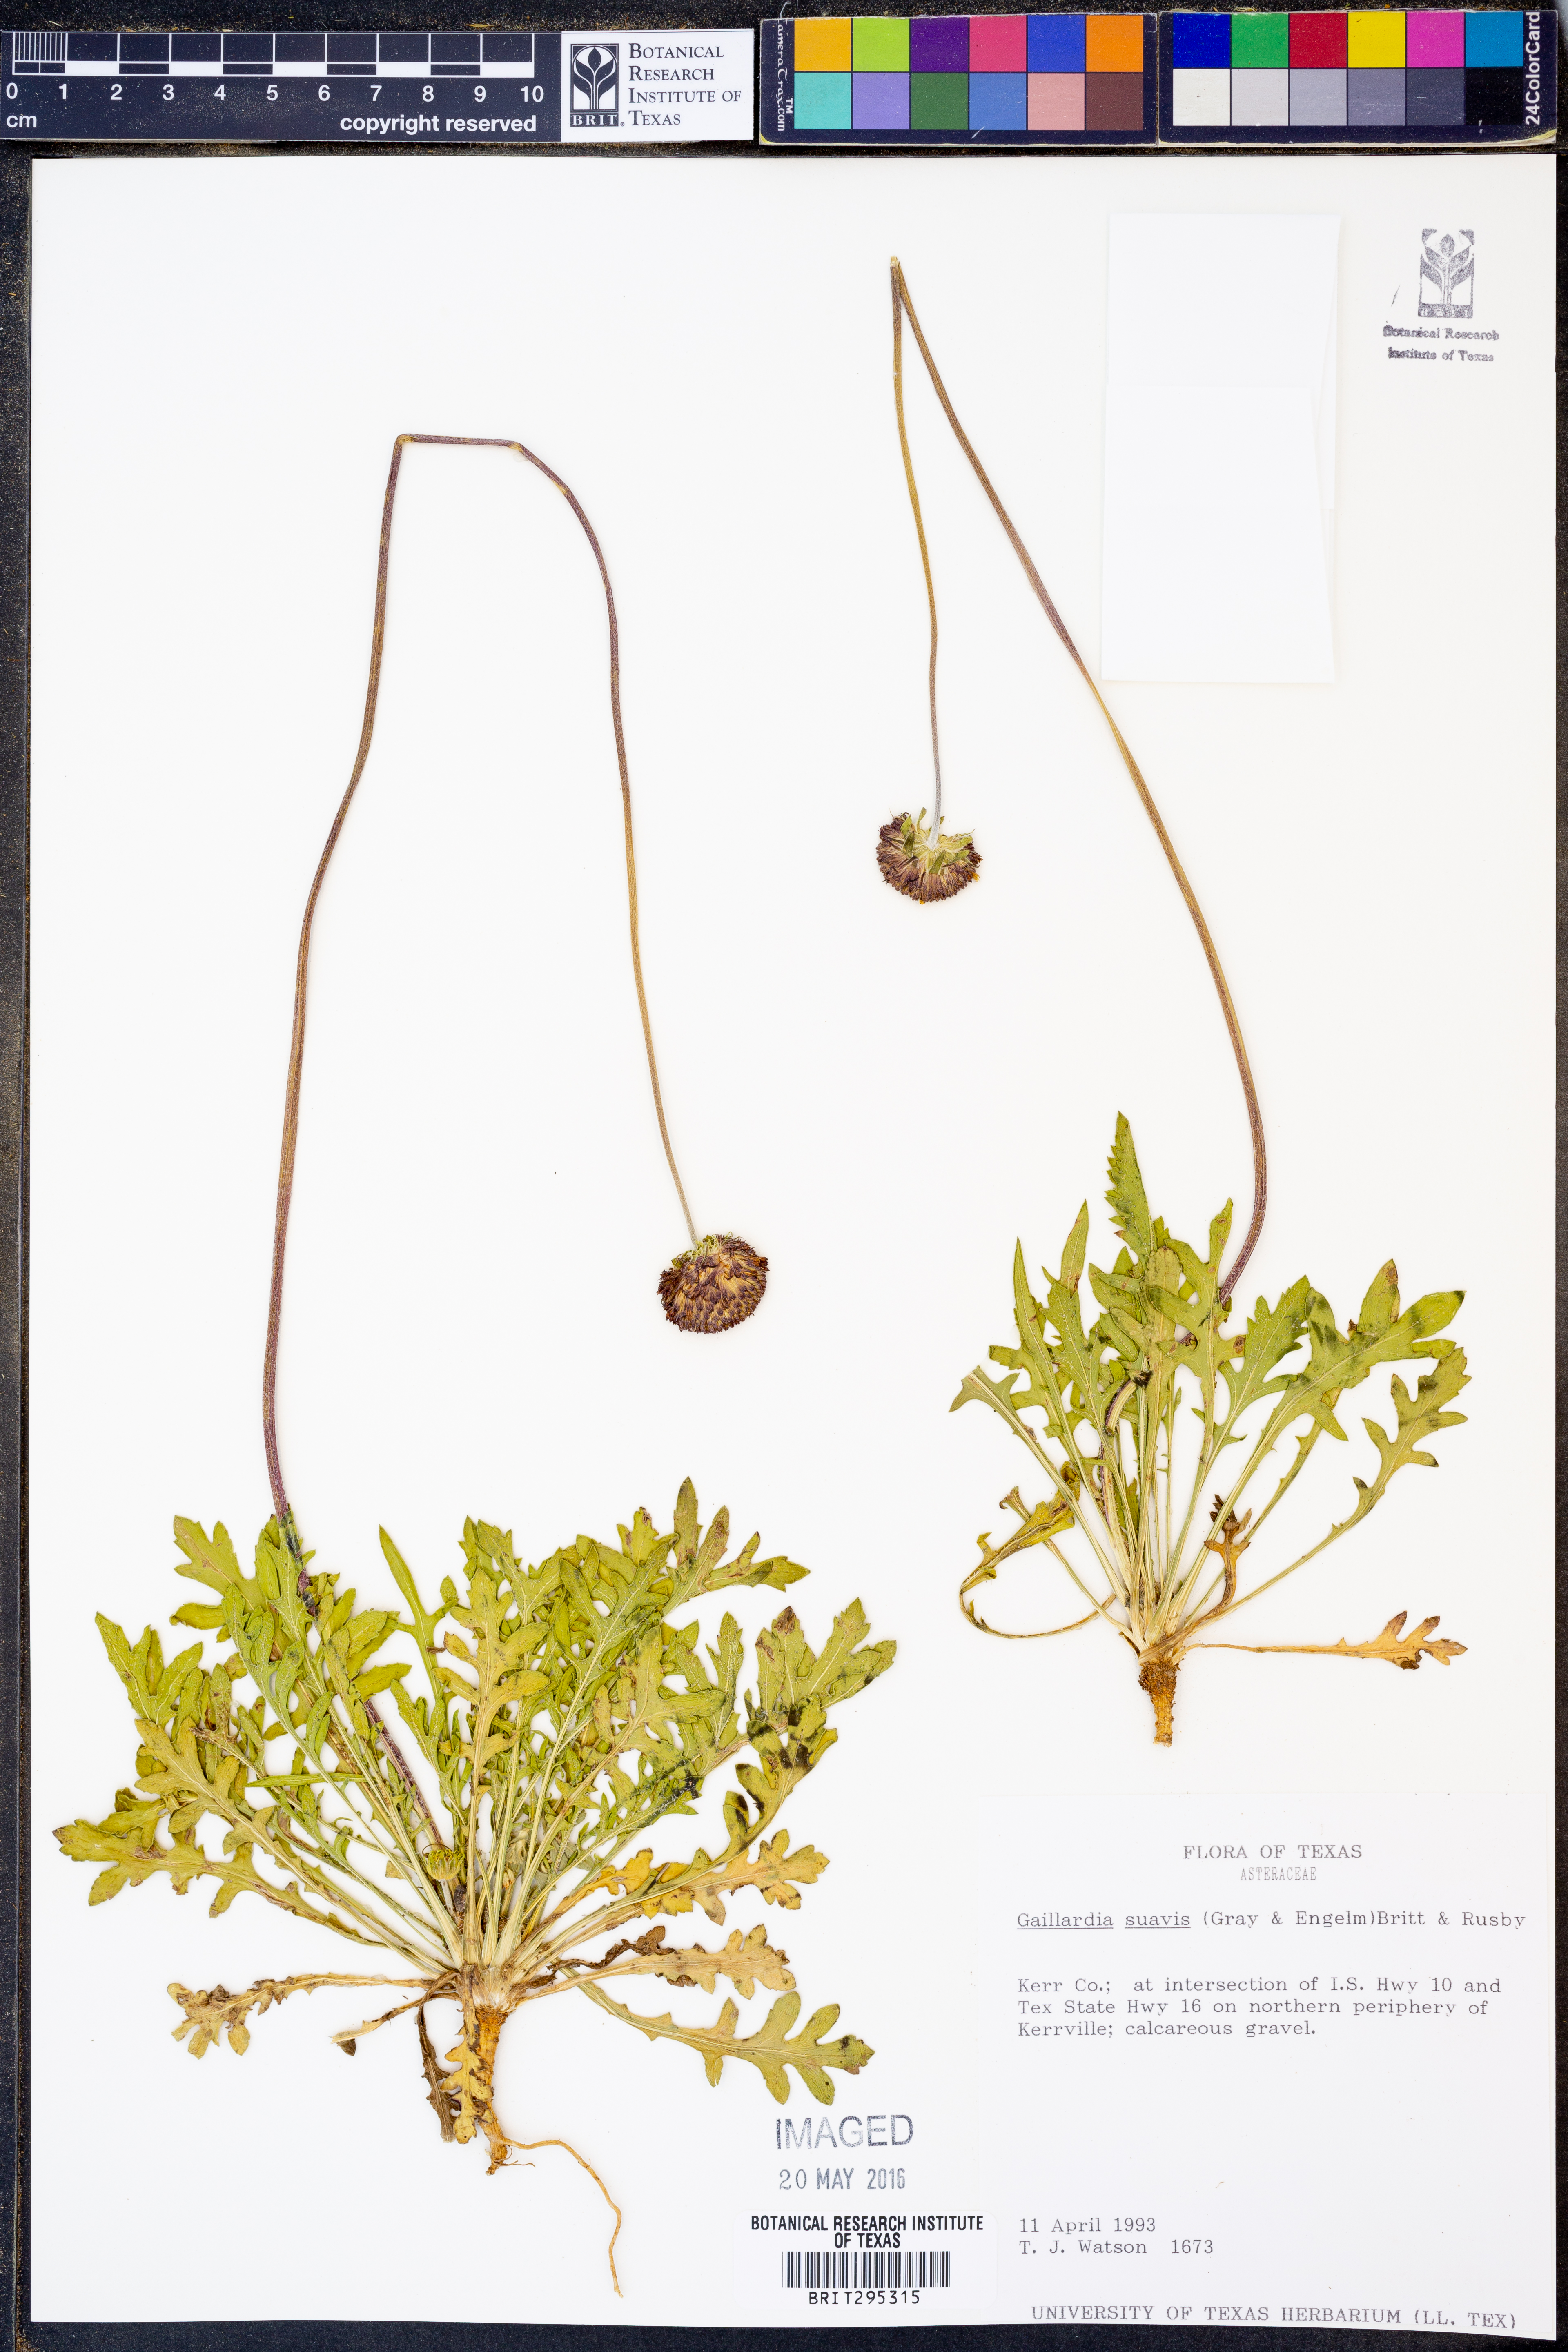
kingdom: Plantae
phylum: Tracheophyta
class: Magnoliopsida
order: Asterales
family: Asteraceae
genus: Gaillardia
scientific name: Gaillardia suavis
